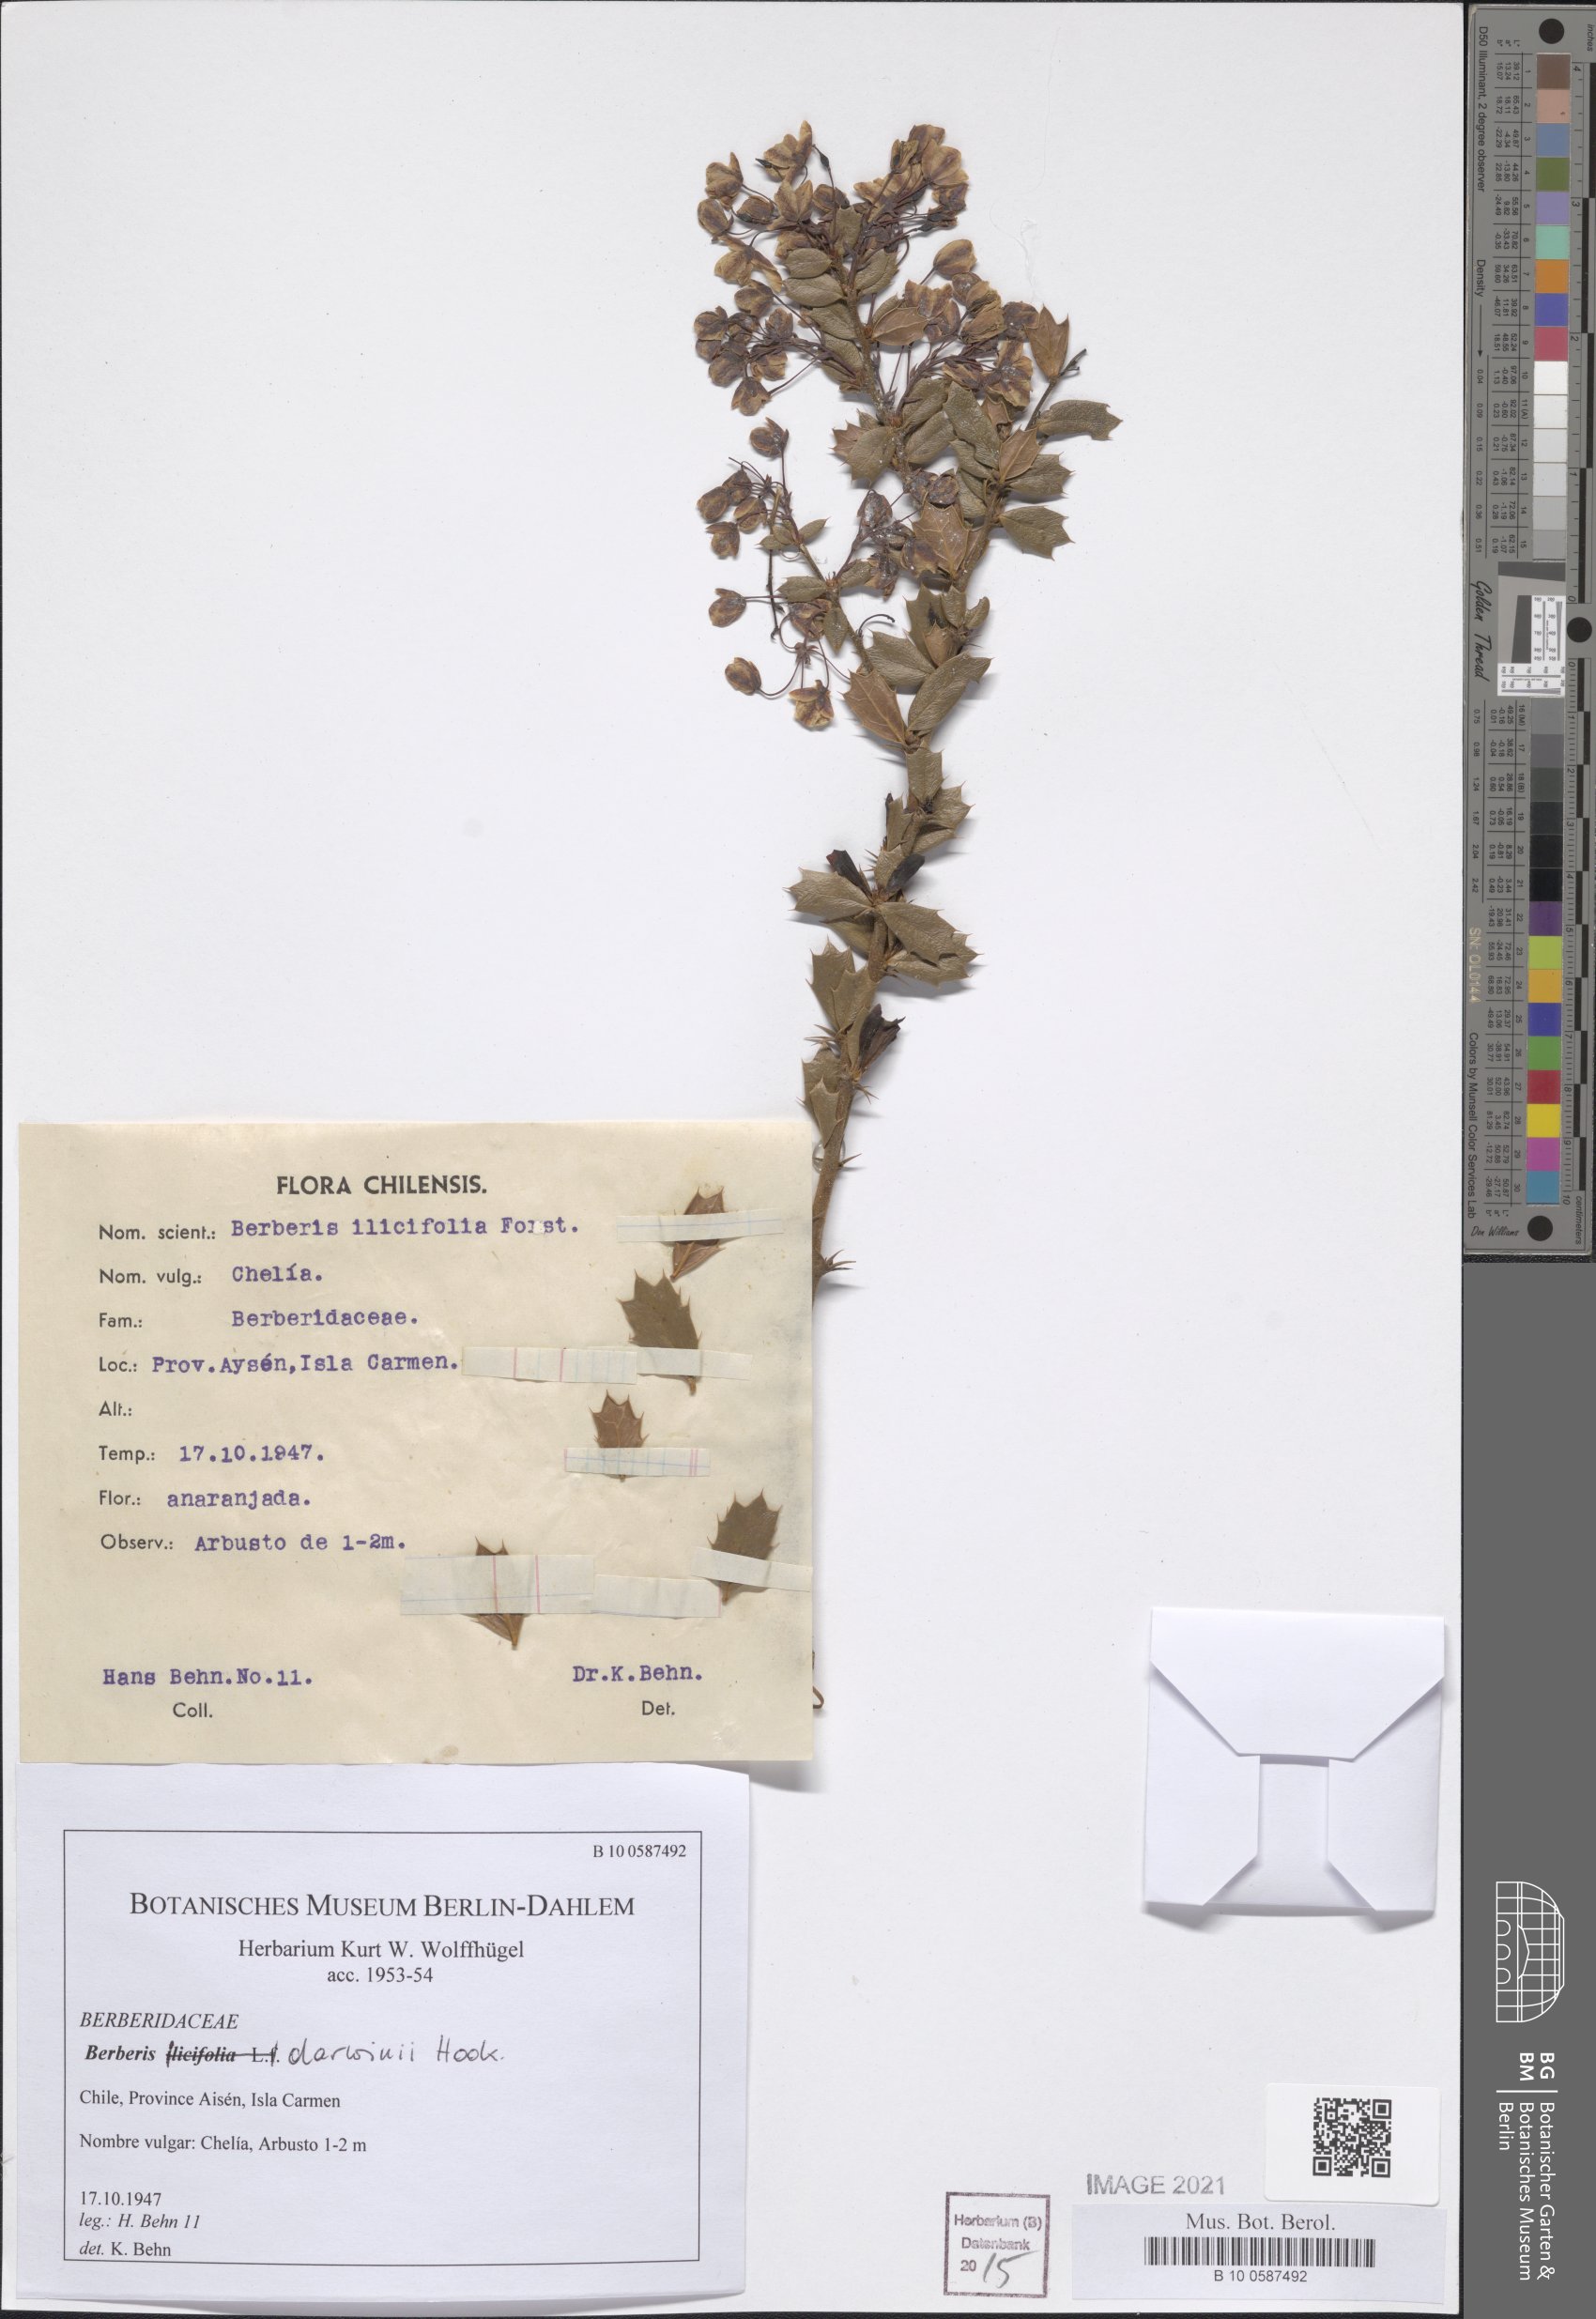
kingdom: Plantae
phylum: Tracheophyta
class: Magnoliopsida
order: Ranunculales
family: Berberidaceae
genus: Berberis
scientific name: Berberis darwinii
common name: Darwin's barberry
